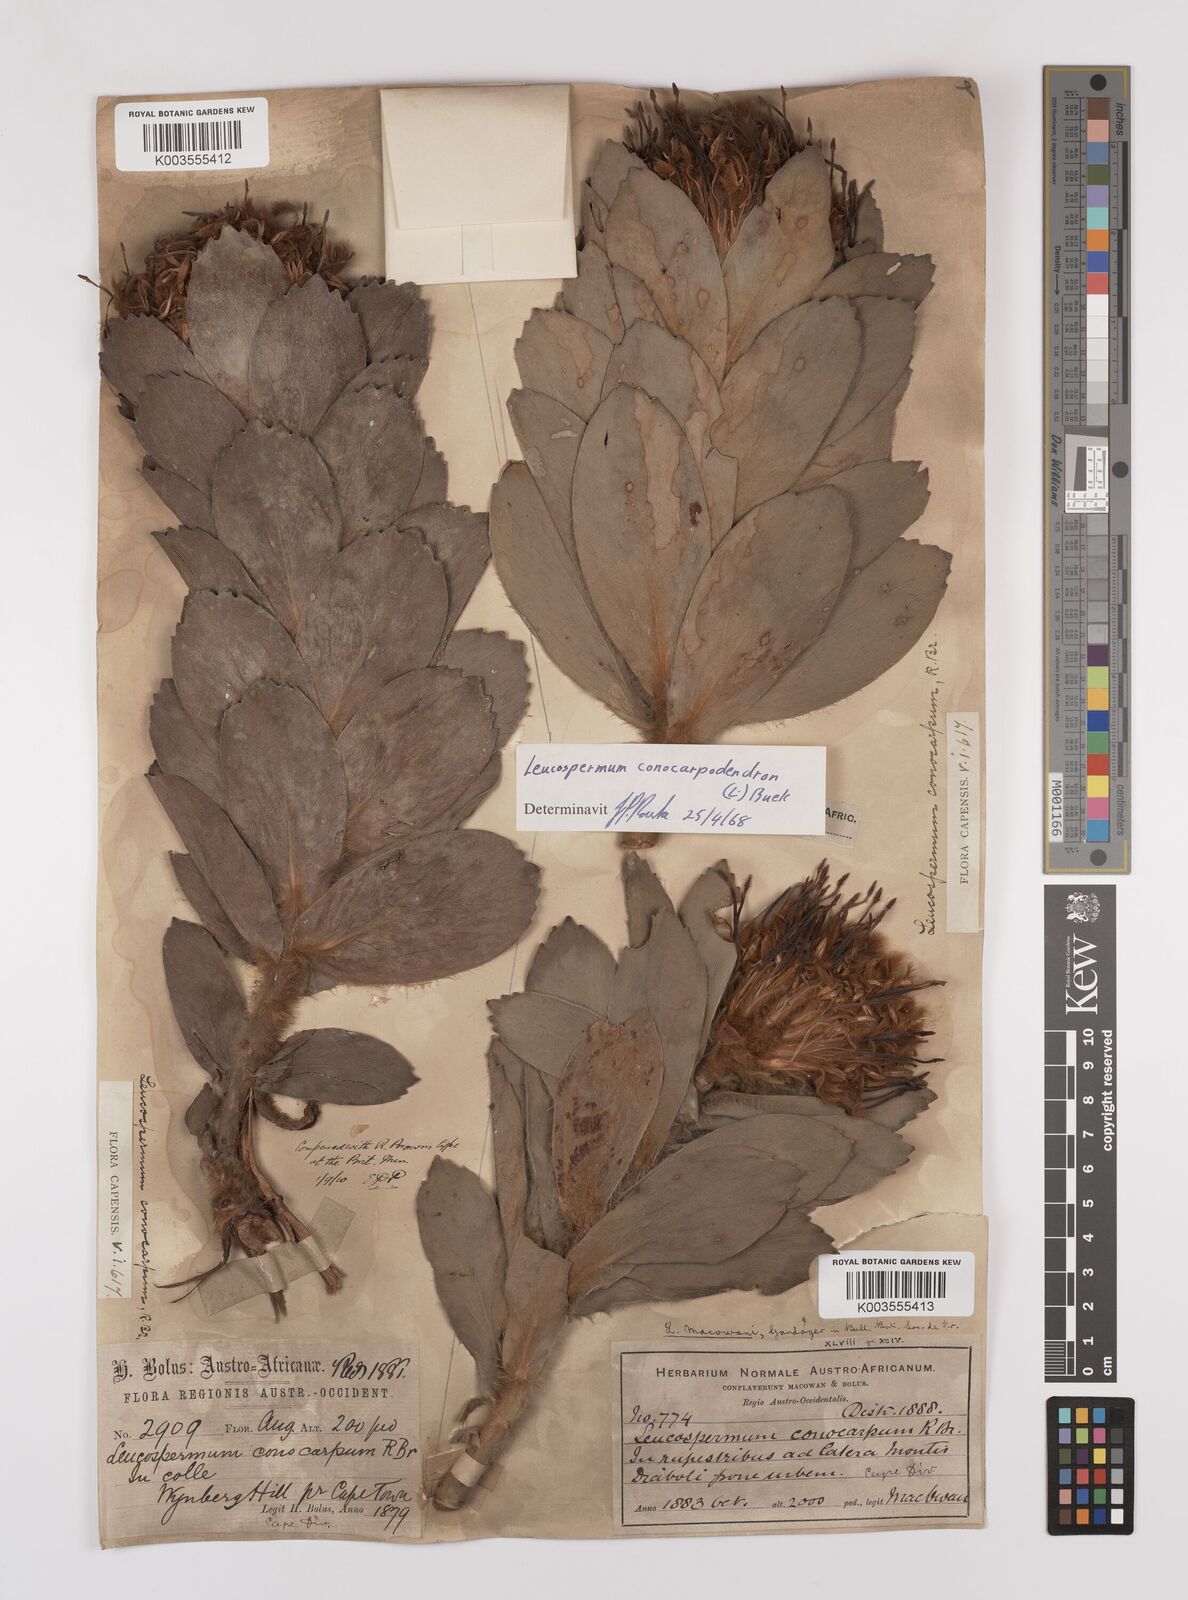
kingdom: Plantae
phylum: Tracheophyta
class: Magnoliopsida
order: Proteales
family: Proteaceae
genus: Leucospermum
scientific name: Leucospermum conocarpodendron
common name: Tree pincushion
